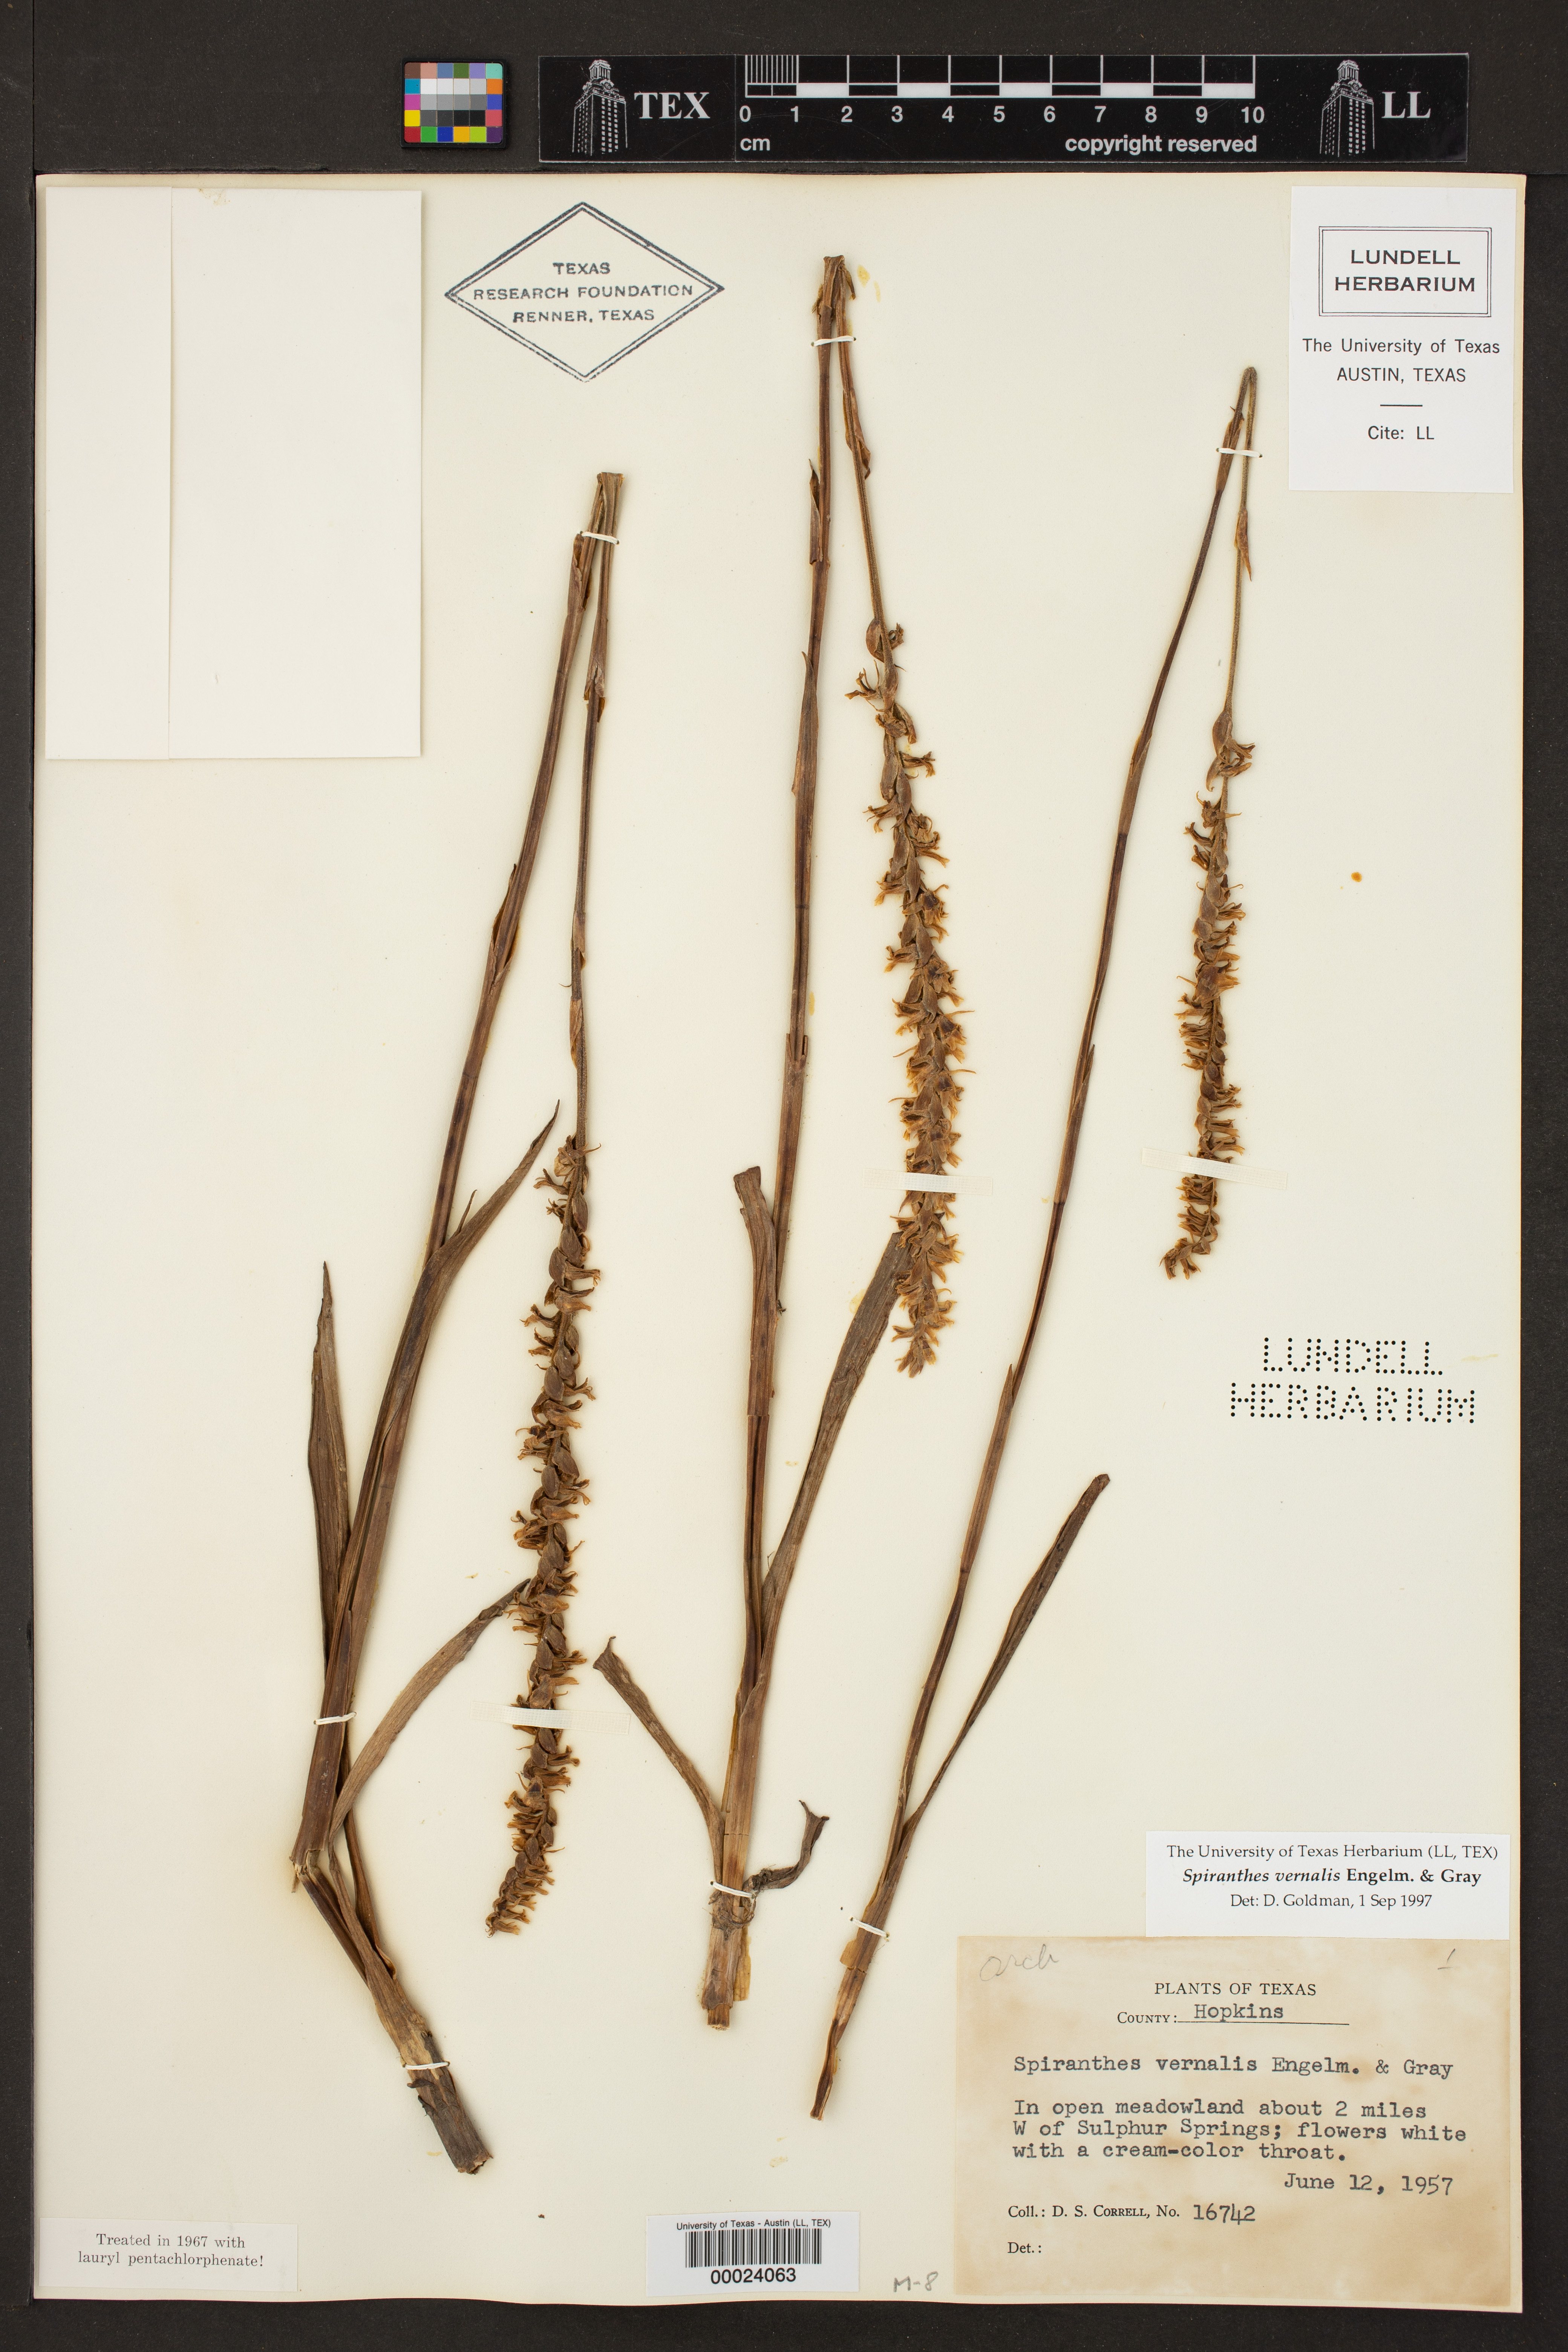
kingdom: Plantae
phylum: Tracheophyta
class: Liliopsida
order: Asparagales
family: Orchidaceae
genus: Spiranthes
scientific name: Spiranthes vernalis
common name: Spring ladies'-tresses
